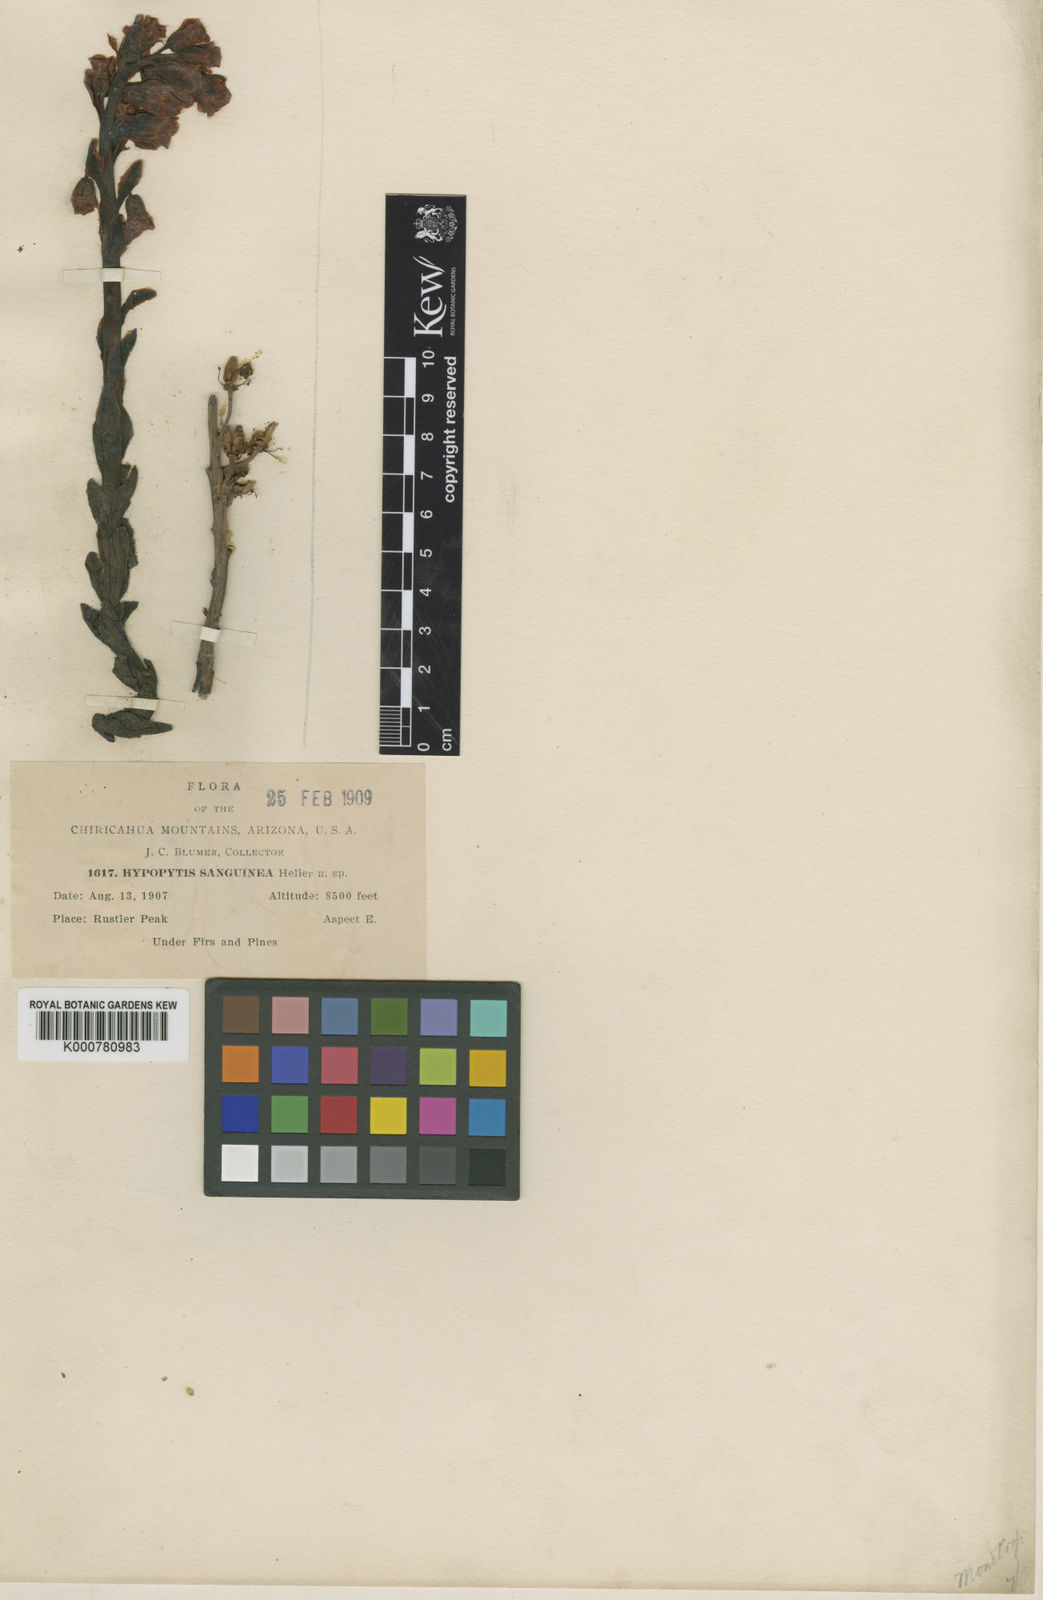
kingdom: Plantae
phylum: Tracheophyta
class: Magnoliopsida
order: Ericales
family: Ericaceae
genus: Hypopitys
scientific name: Hypopitys
